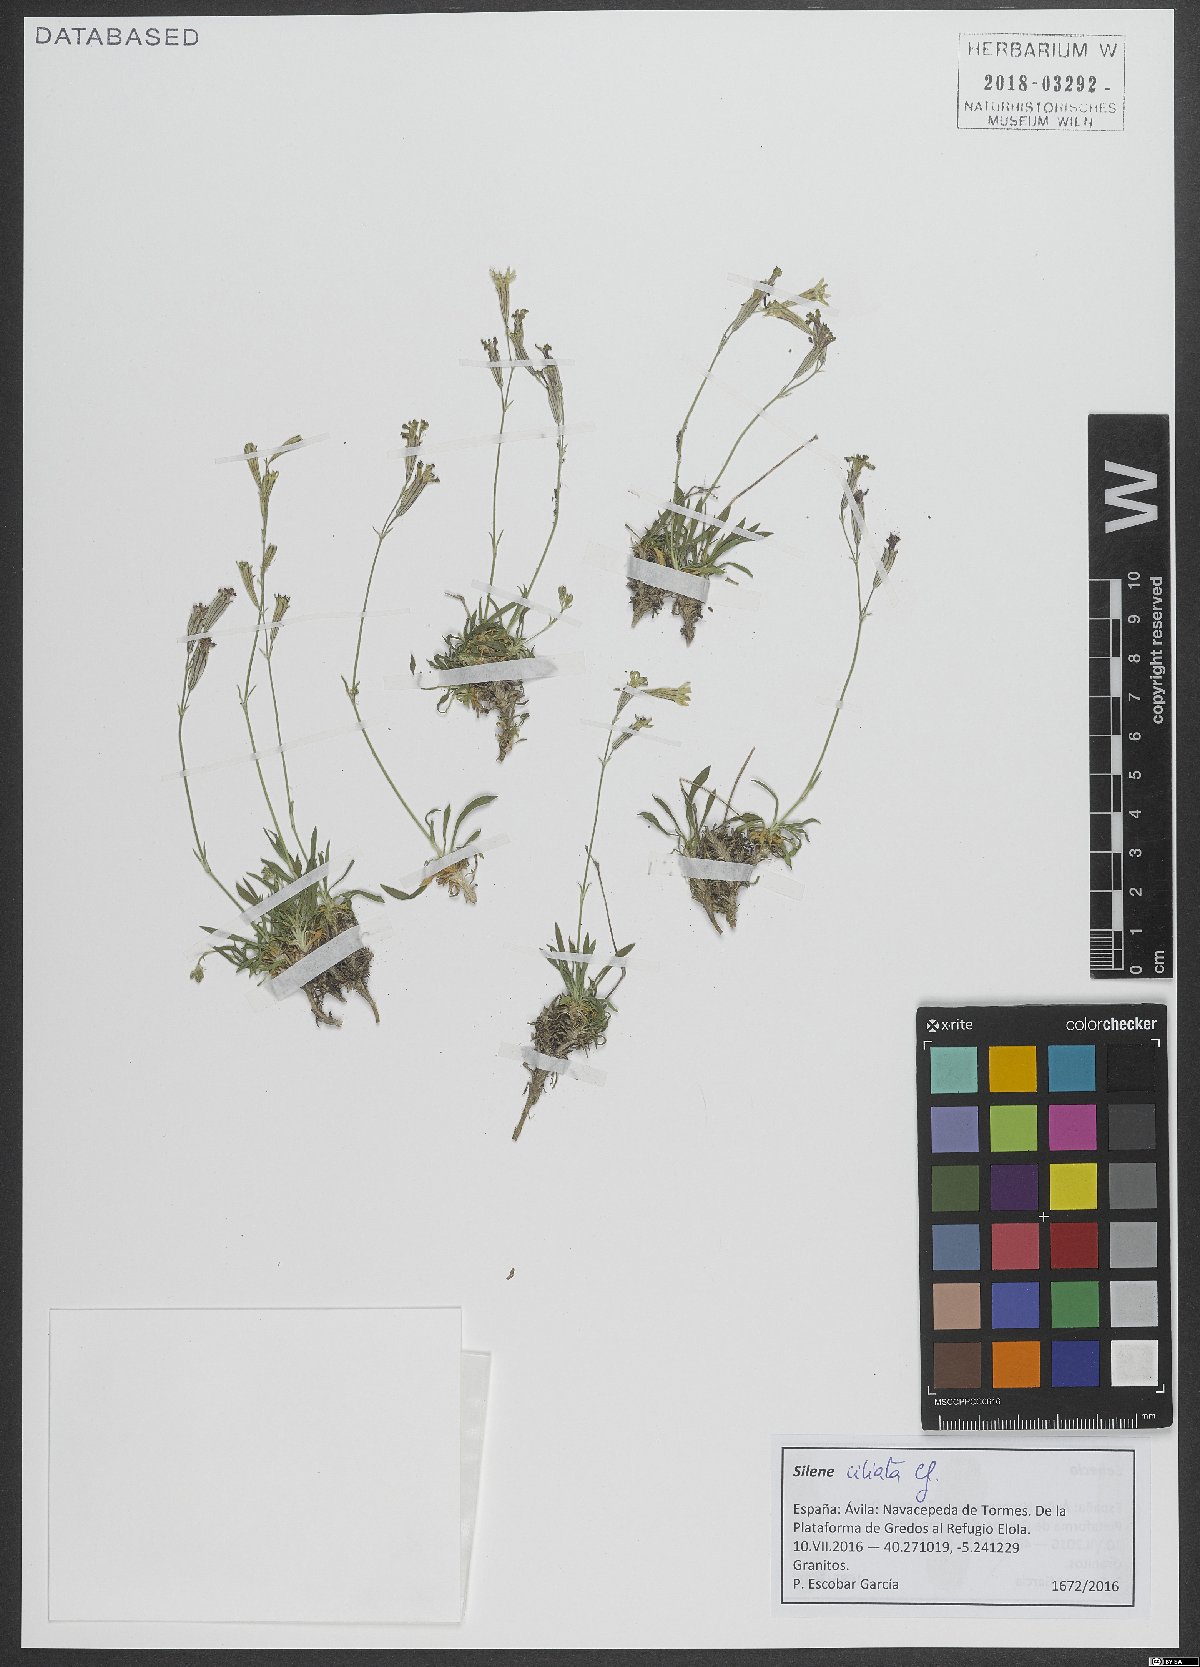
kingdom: Plantae
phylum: Tracheophyta
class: Magnoliopsida
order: Caryophyllales
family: Caryophyllaceae
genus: Silene
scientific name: Silene ciliata
